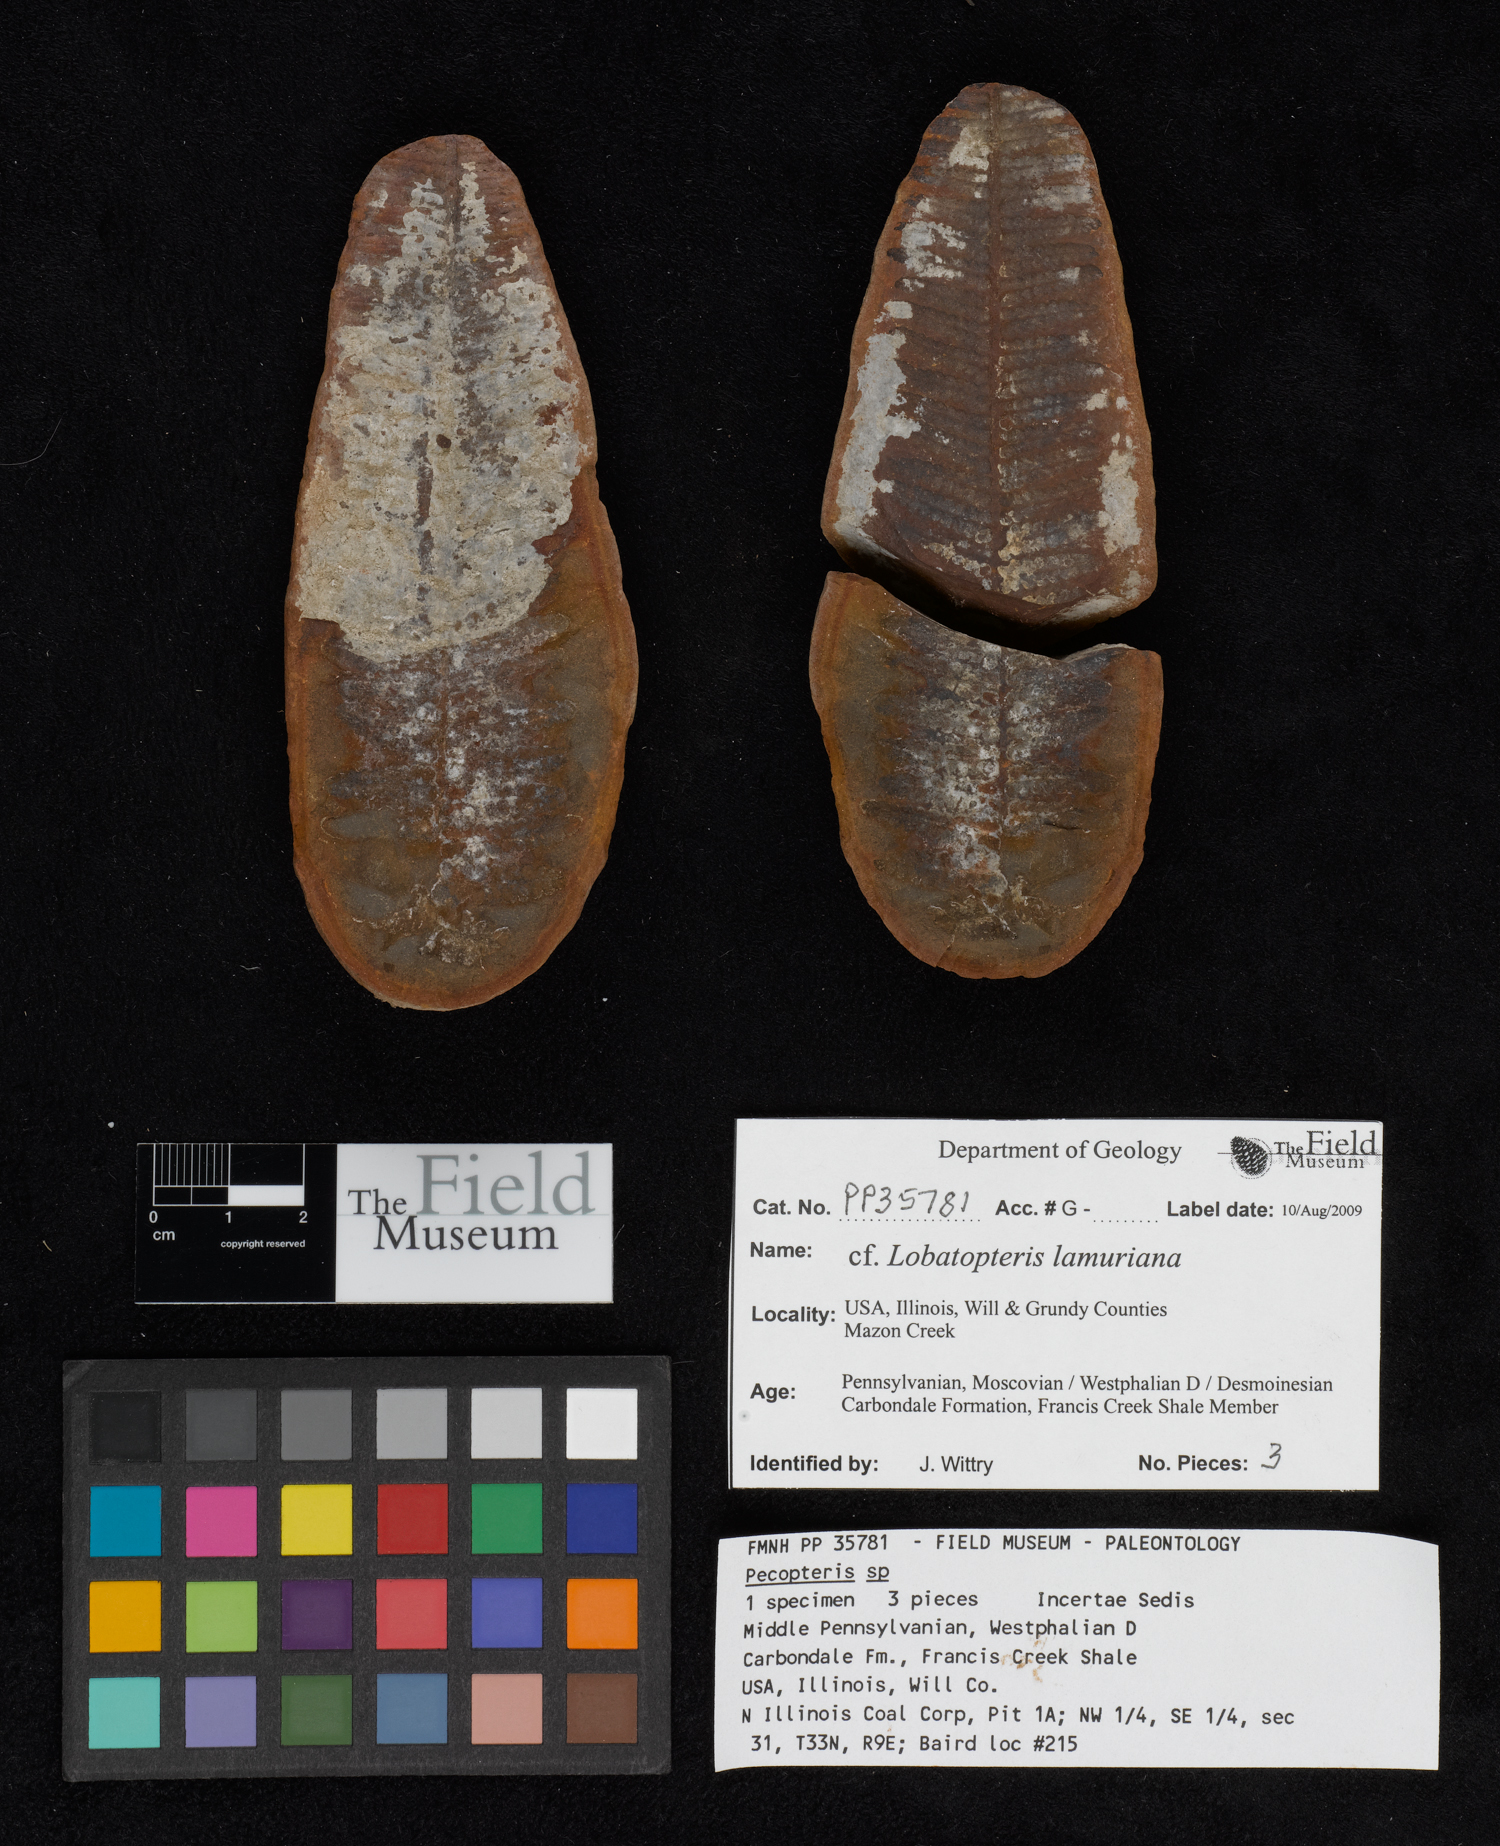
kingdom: Plantae
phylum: Tracheophyta
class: Polypodiopsida
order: Marattiales
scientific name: Marattiales
